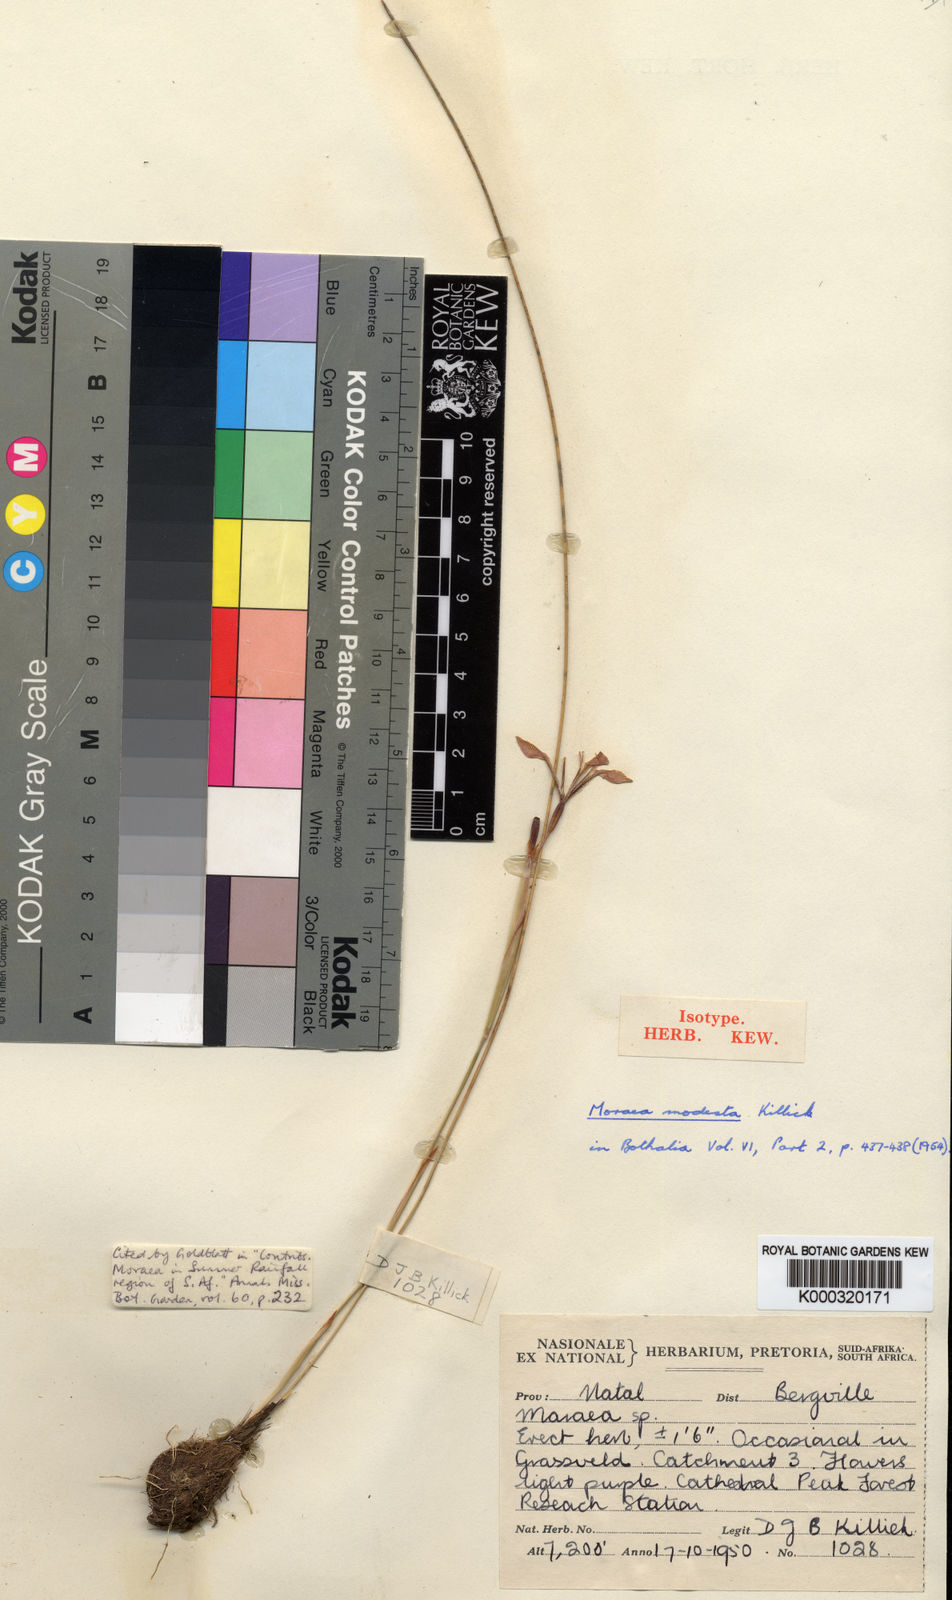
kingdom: Plantae
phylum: Tracheophyta
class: Liliopsida
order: Asparagales
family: Iridaceae
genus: Moraea
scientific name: Moraea modesta
